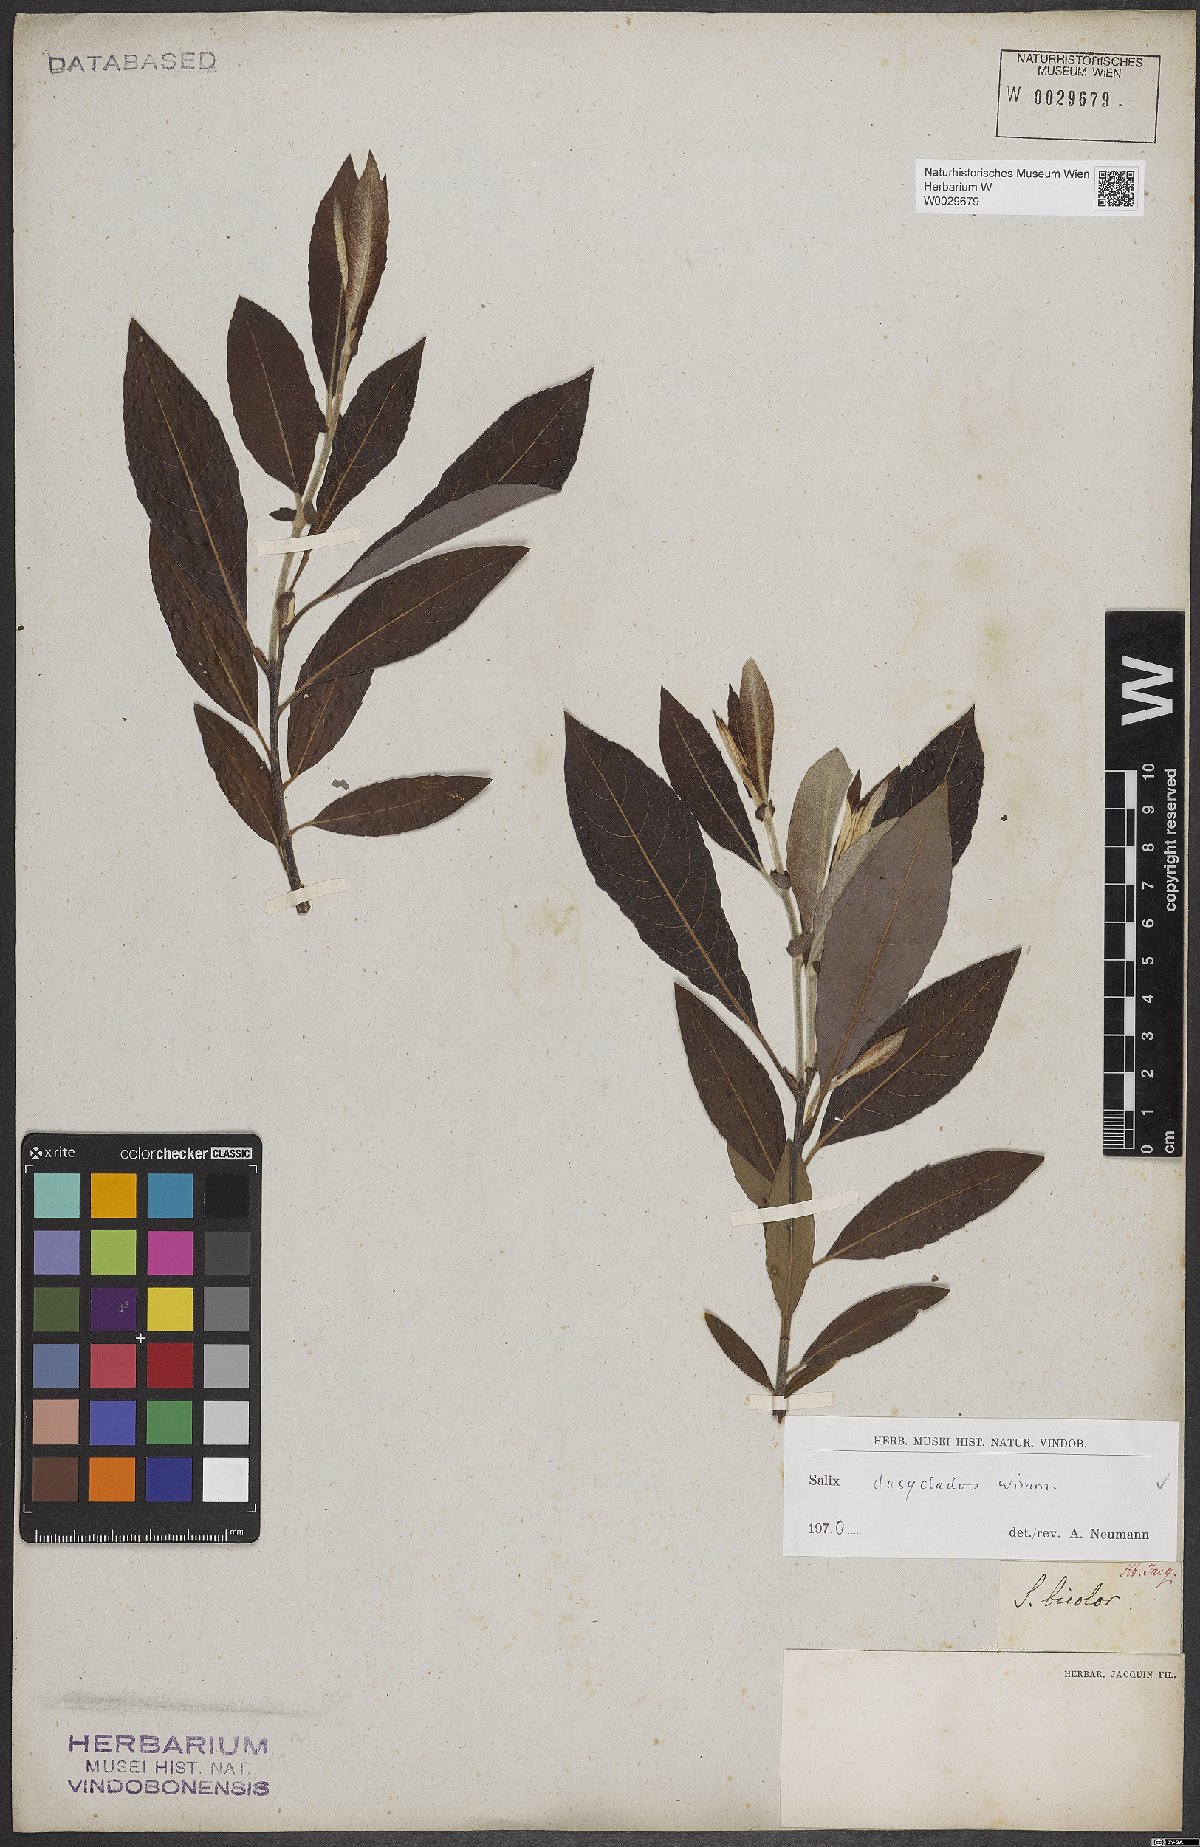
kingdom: Plantae
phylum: Tracheophyta
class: Magnoliopsida
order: Malpighiales
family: Salicaceae
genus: Salix
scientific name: Salix gmelinii
